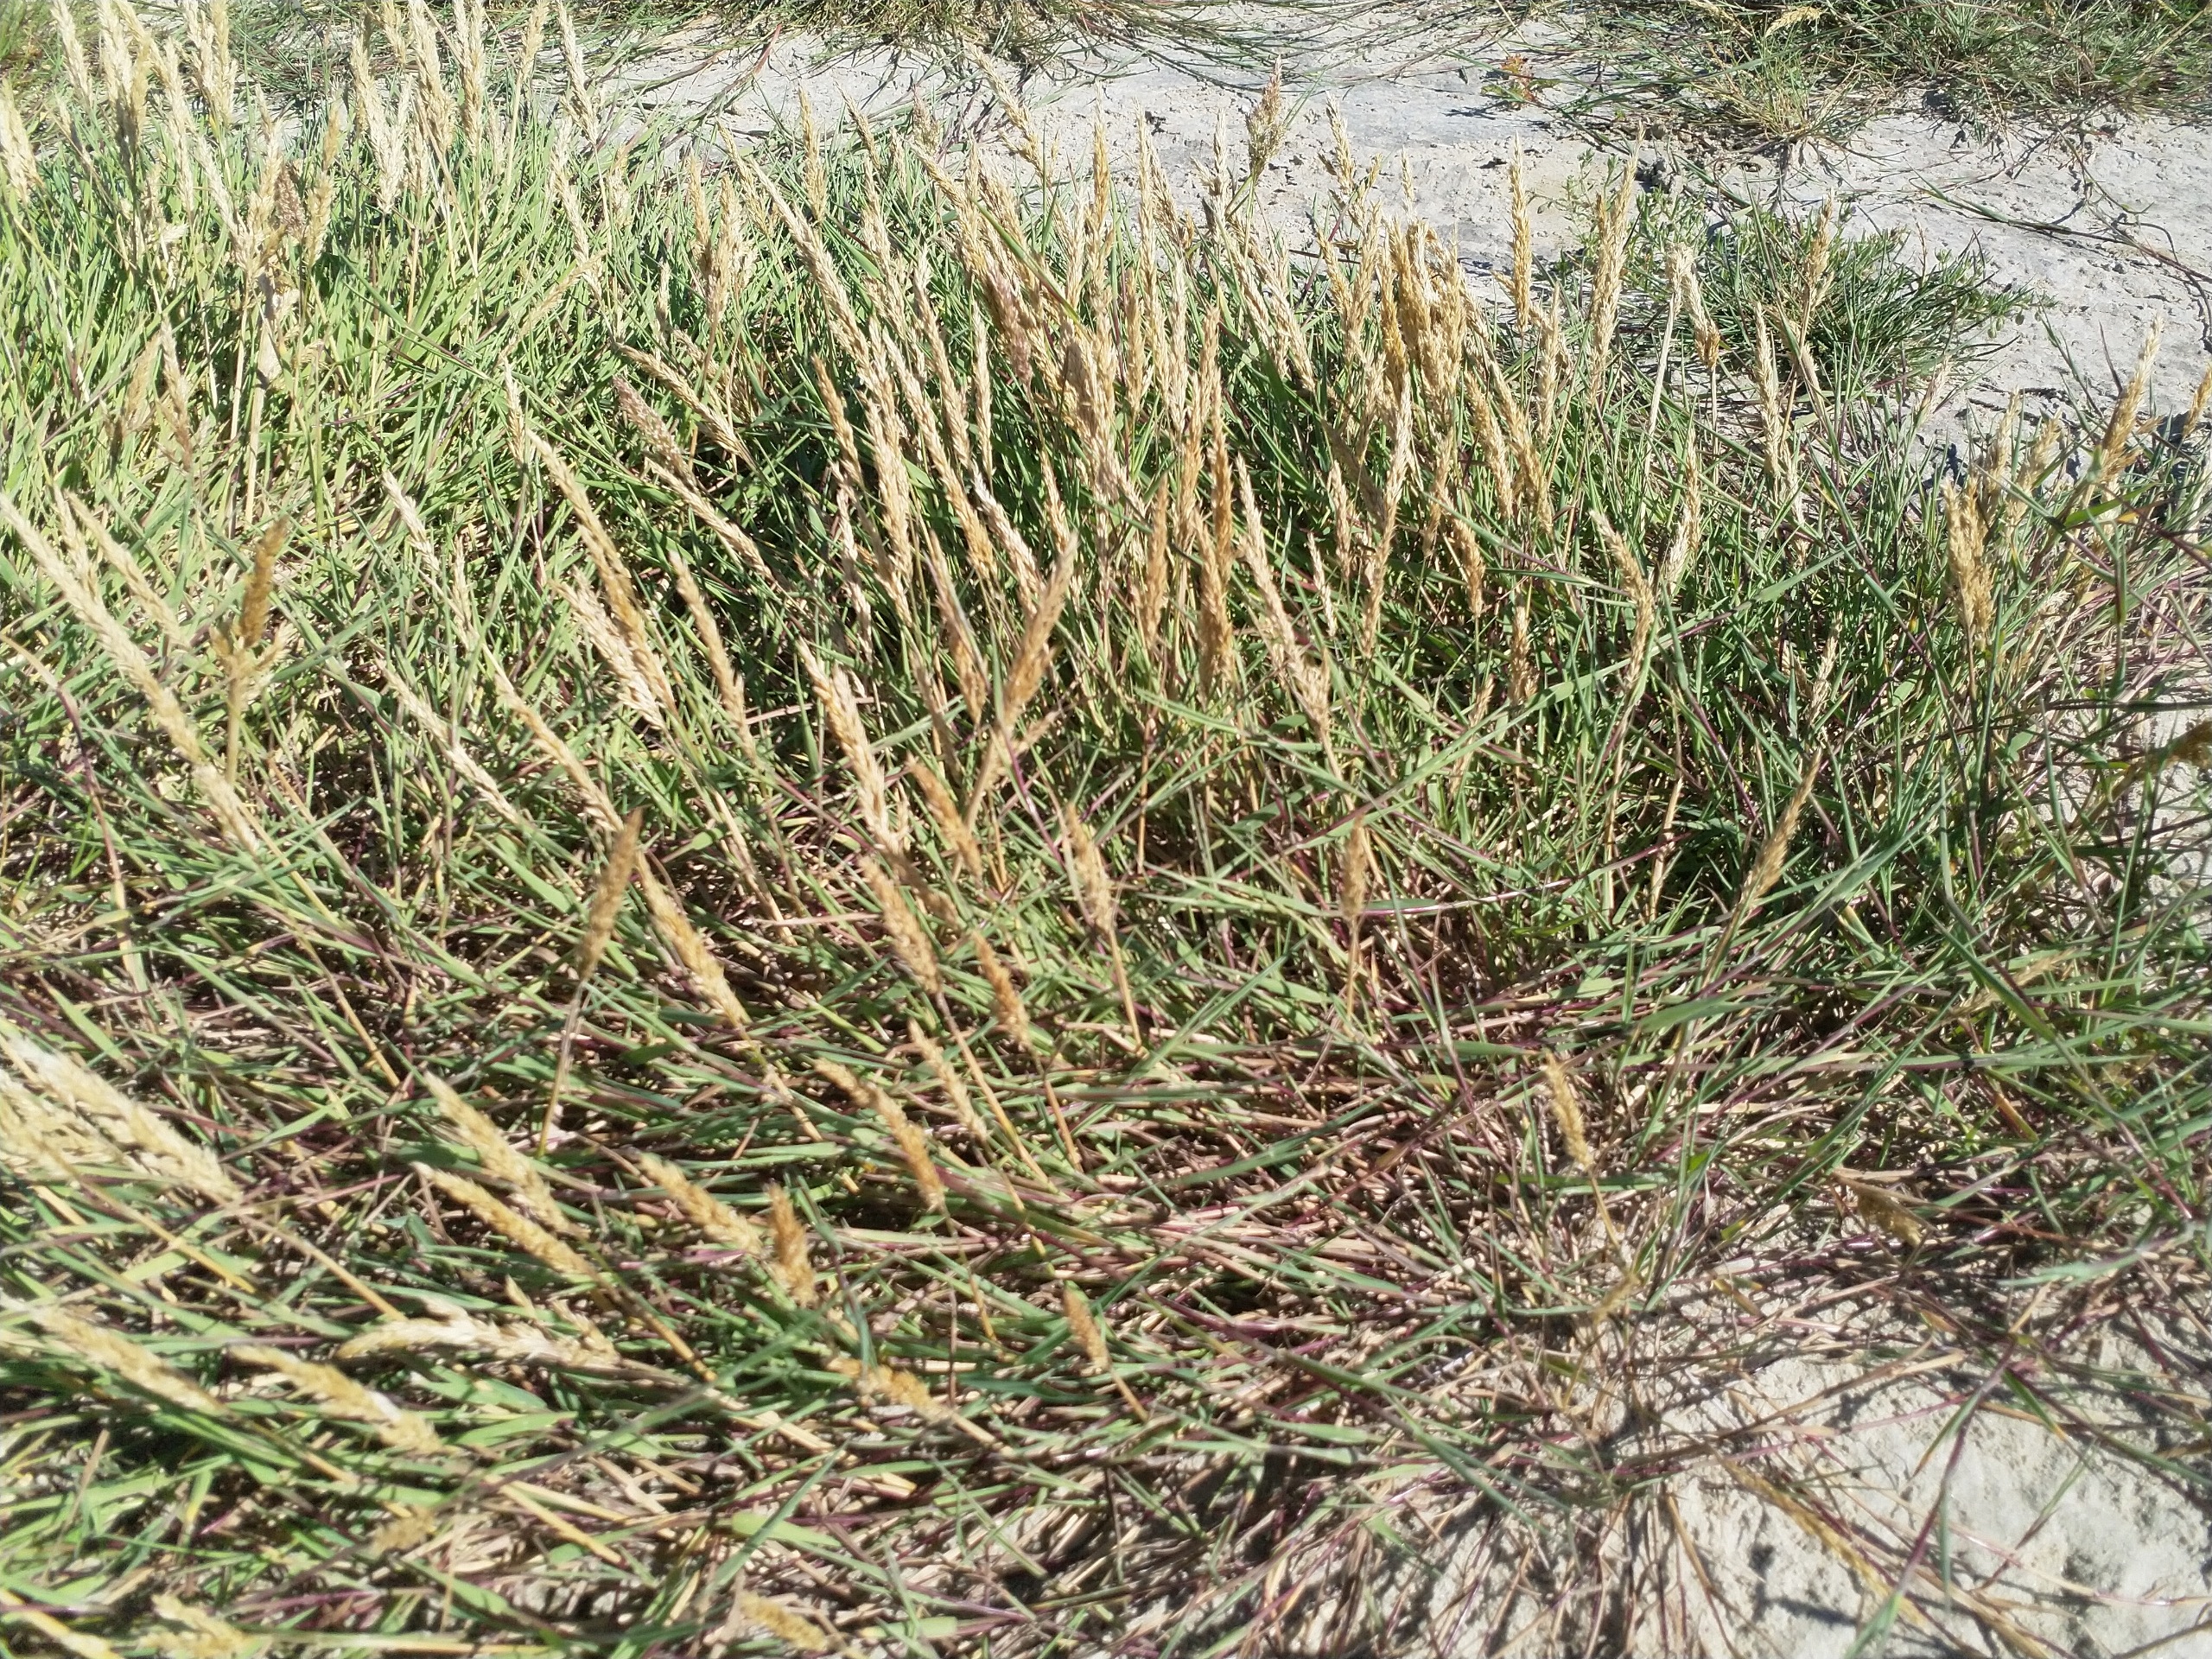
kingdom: Plantae
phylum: Tracheophyta
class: Liliopsida
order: Poales
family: Poaceae
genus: Koeleria
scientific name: Koeleria glauca
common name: Klit-kambunke
